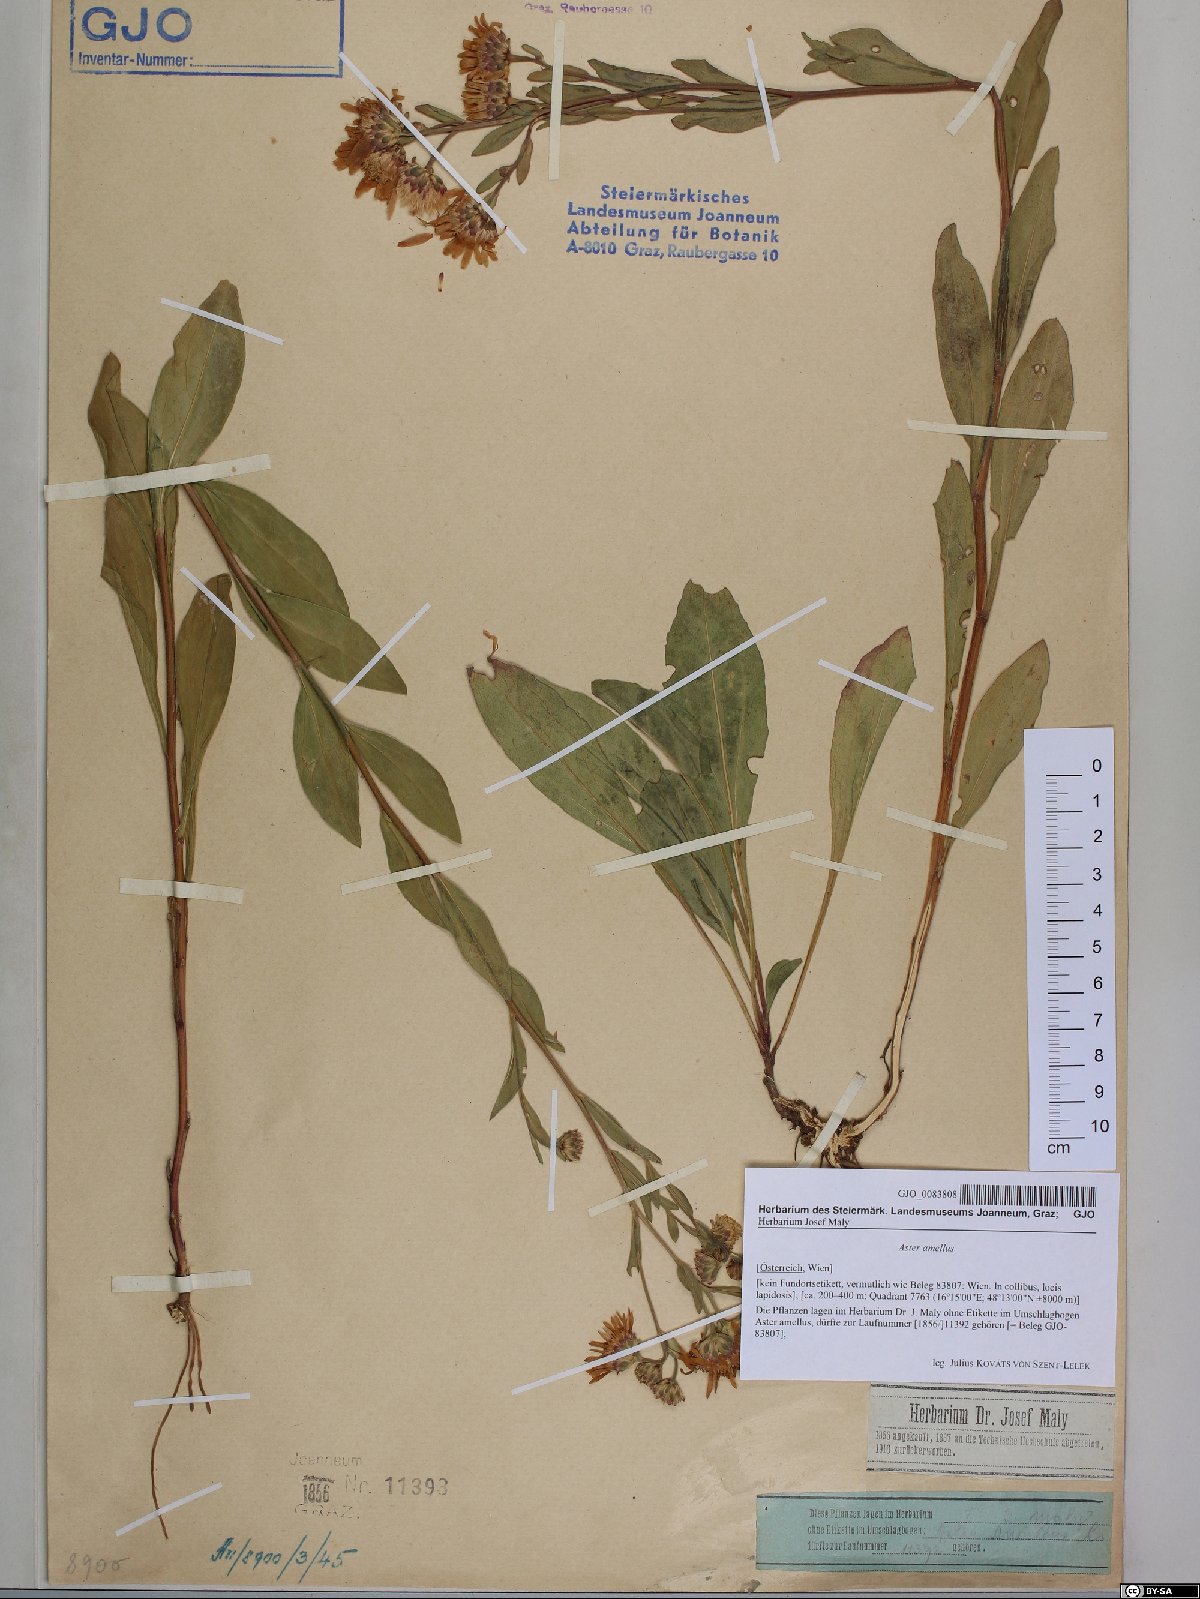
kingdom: Plantae
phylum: Tracheophyta
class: Magnoliopsida
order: Asterales
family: Asteraceae
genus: Aster
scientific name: Aster amellus
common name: European michaelmas daisy
